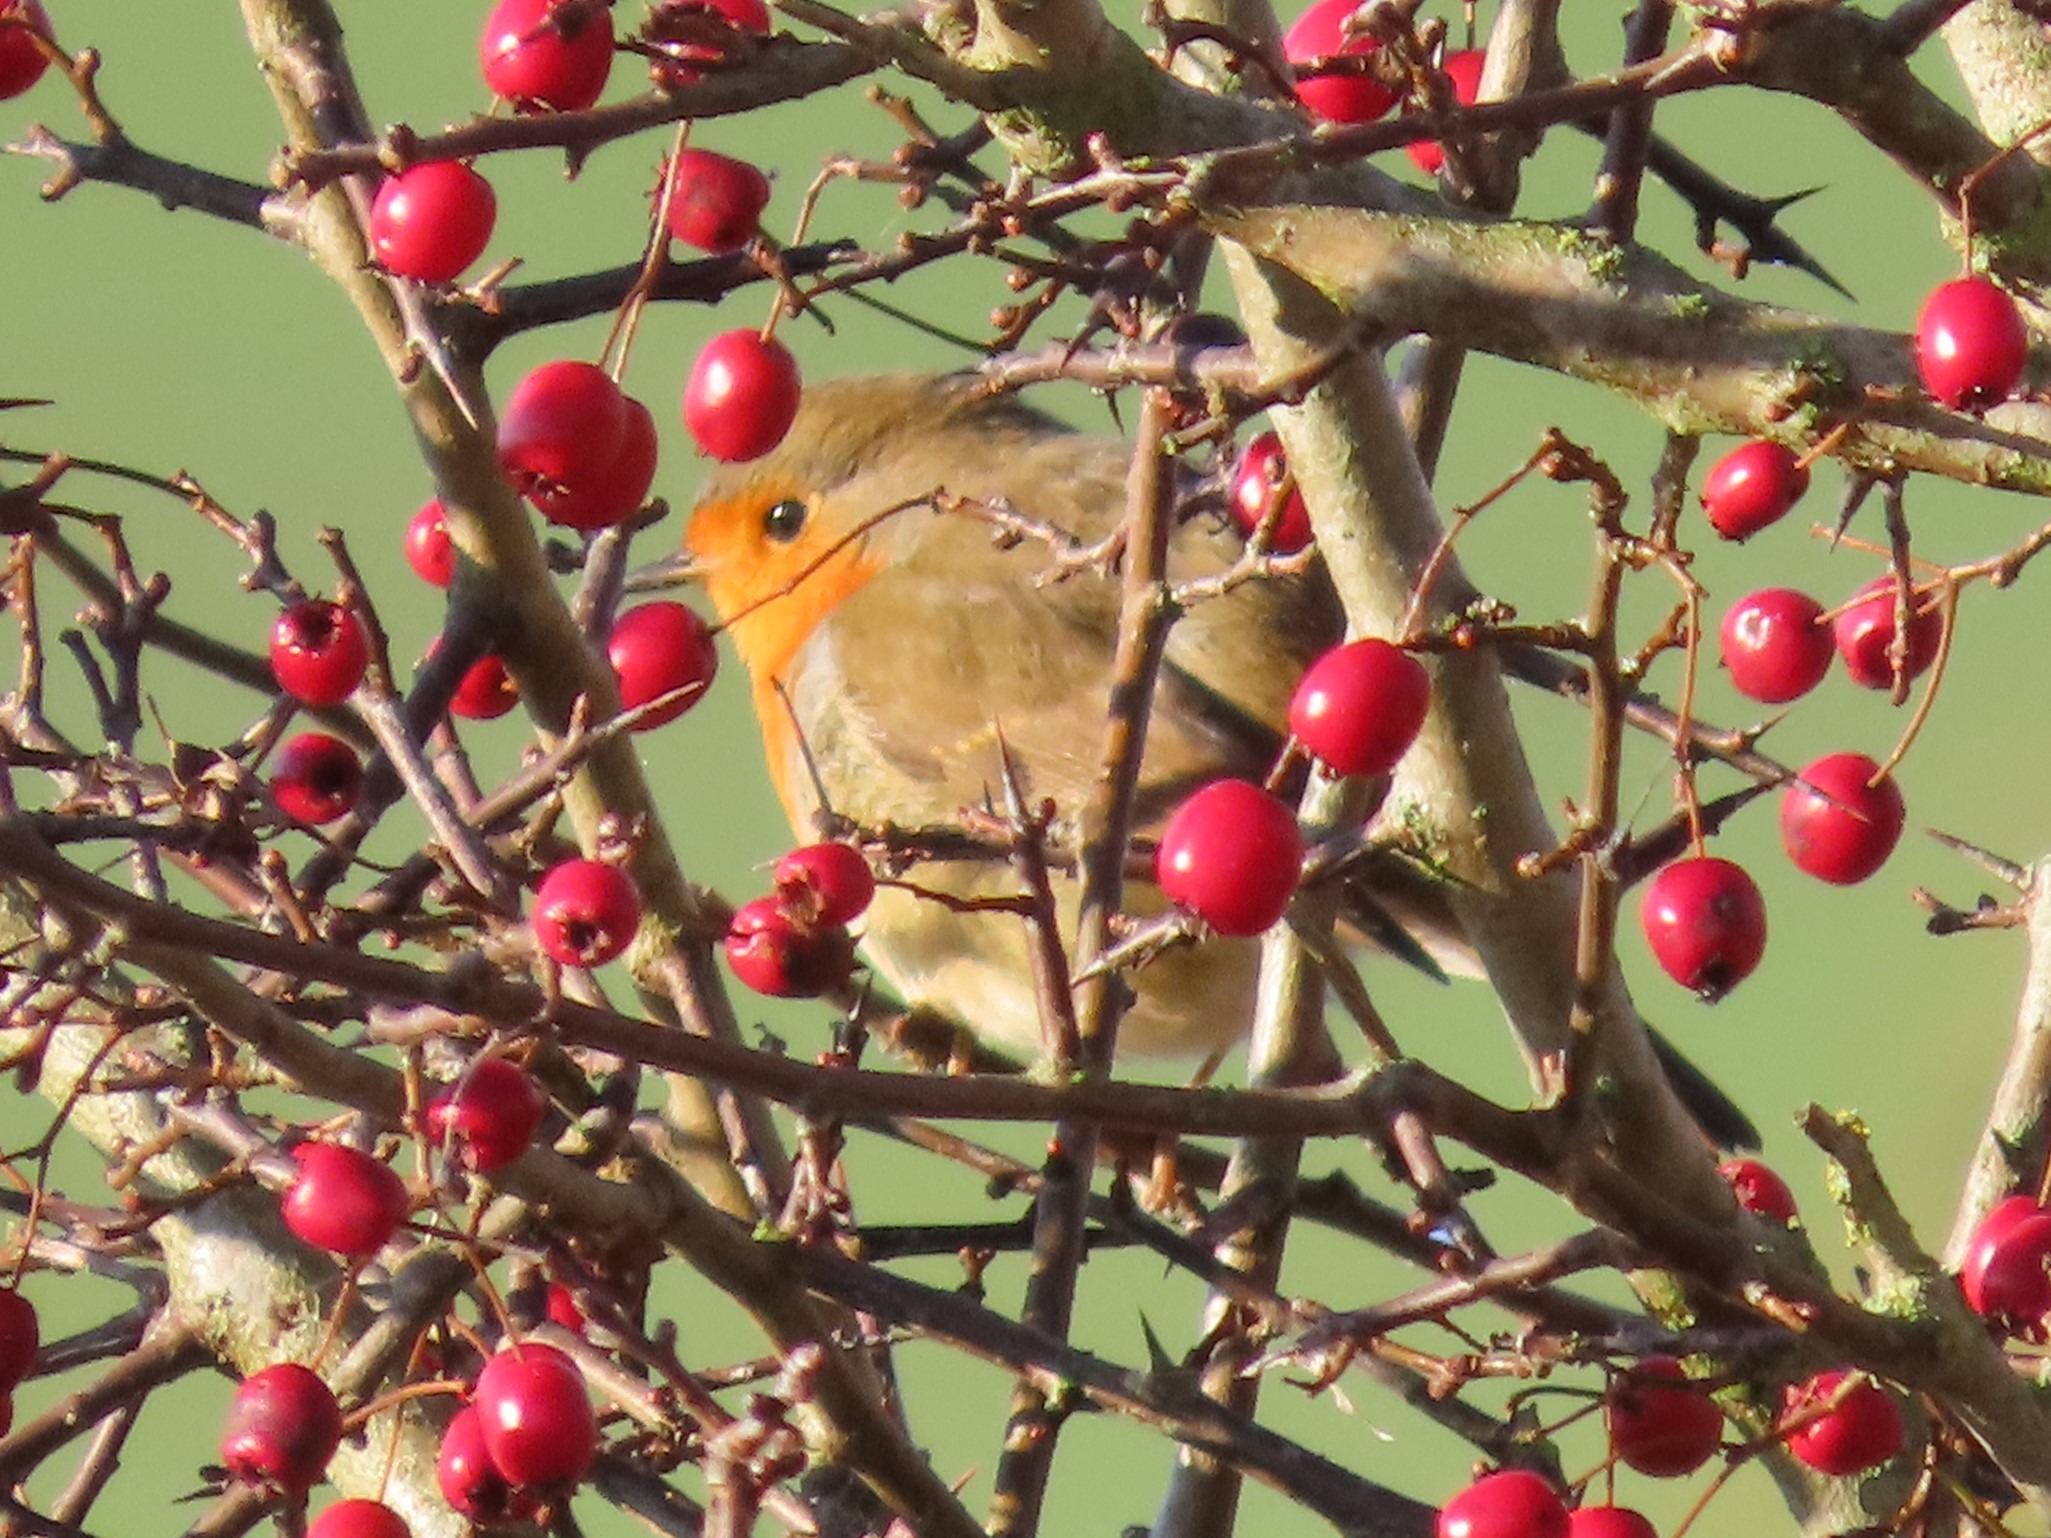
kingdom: Animalia
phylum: Chordata
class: Aves
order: Passeriformes
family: Muscicapidae
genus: Erithacus
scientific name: Erithacus rubecula
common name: Rødhals/rødkælk
